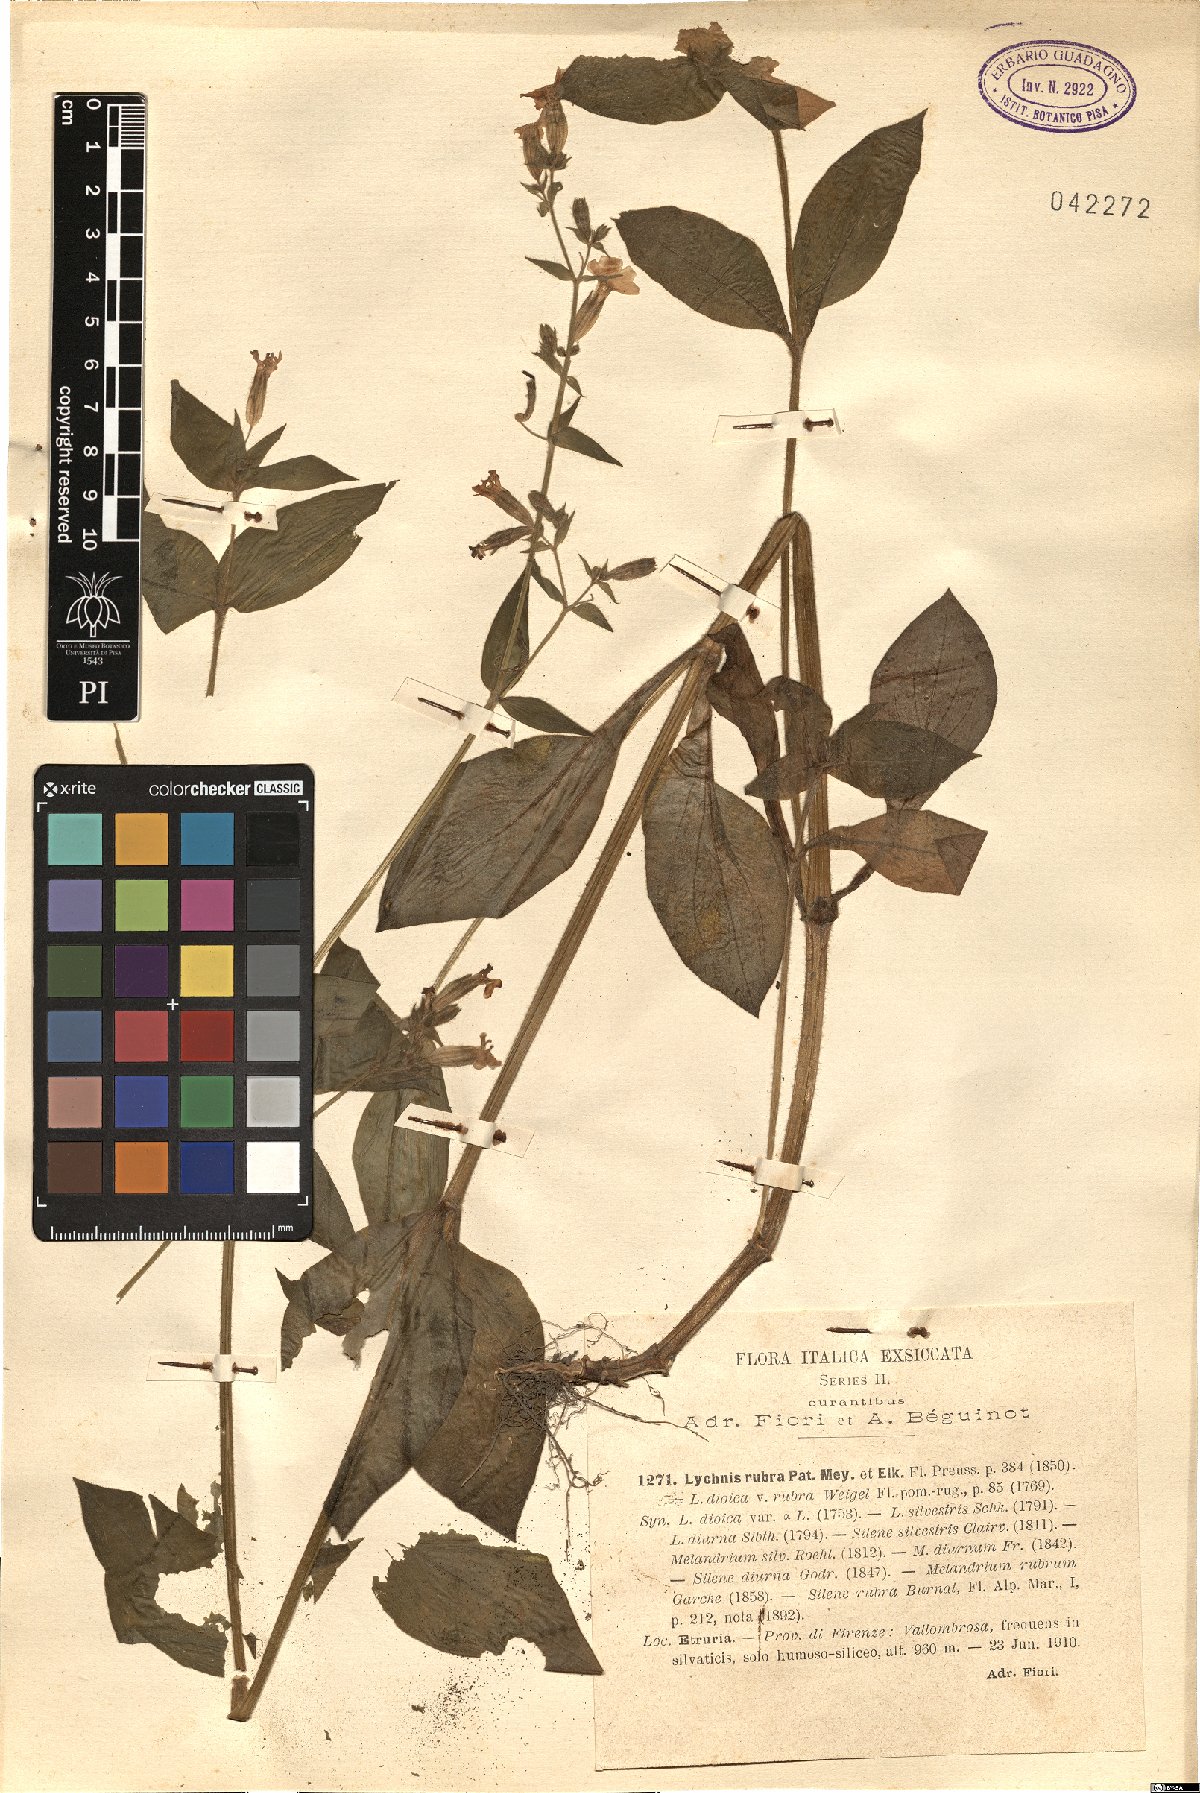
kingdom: Plantae
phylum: Tracheophyta
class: Magnoliopsida
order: Caryophyllales
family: Caryophyllaceae
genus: Silene
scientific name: Silene dioica
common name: Red campion
